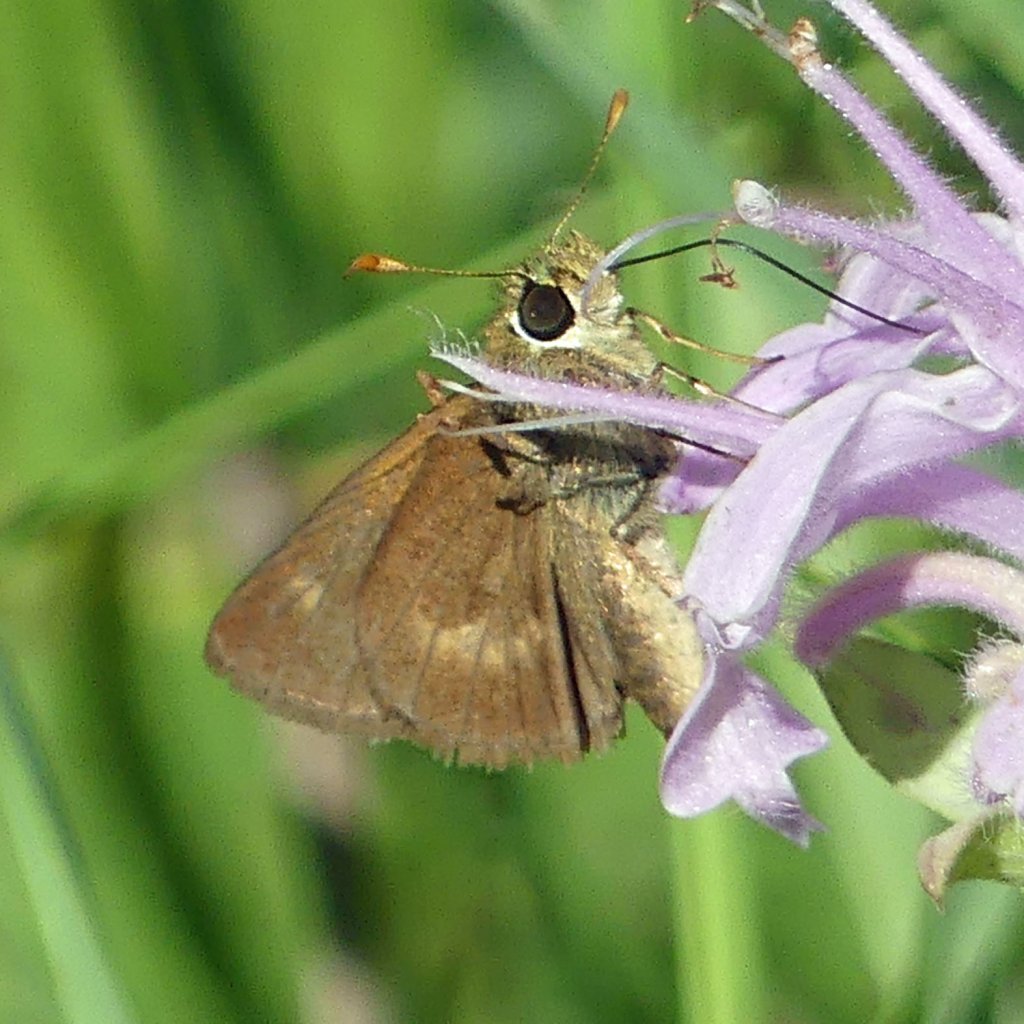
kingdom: Animalia
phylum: Arthropoda
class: Insecta
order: Lepidoptera
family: Hesperiidae
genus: Polites
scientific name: Polites egeremet
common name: Northern Broken-Dash
